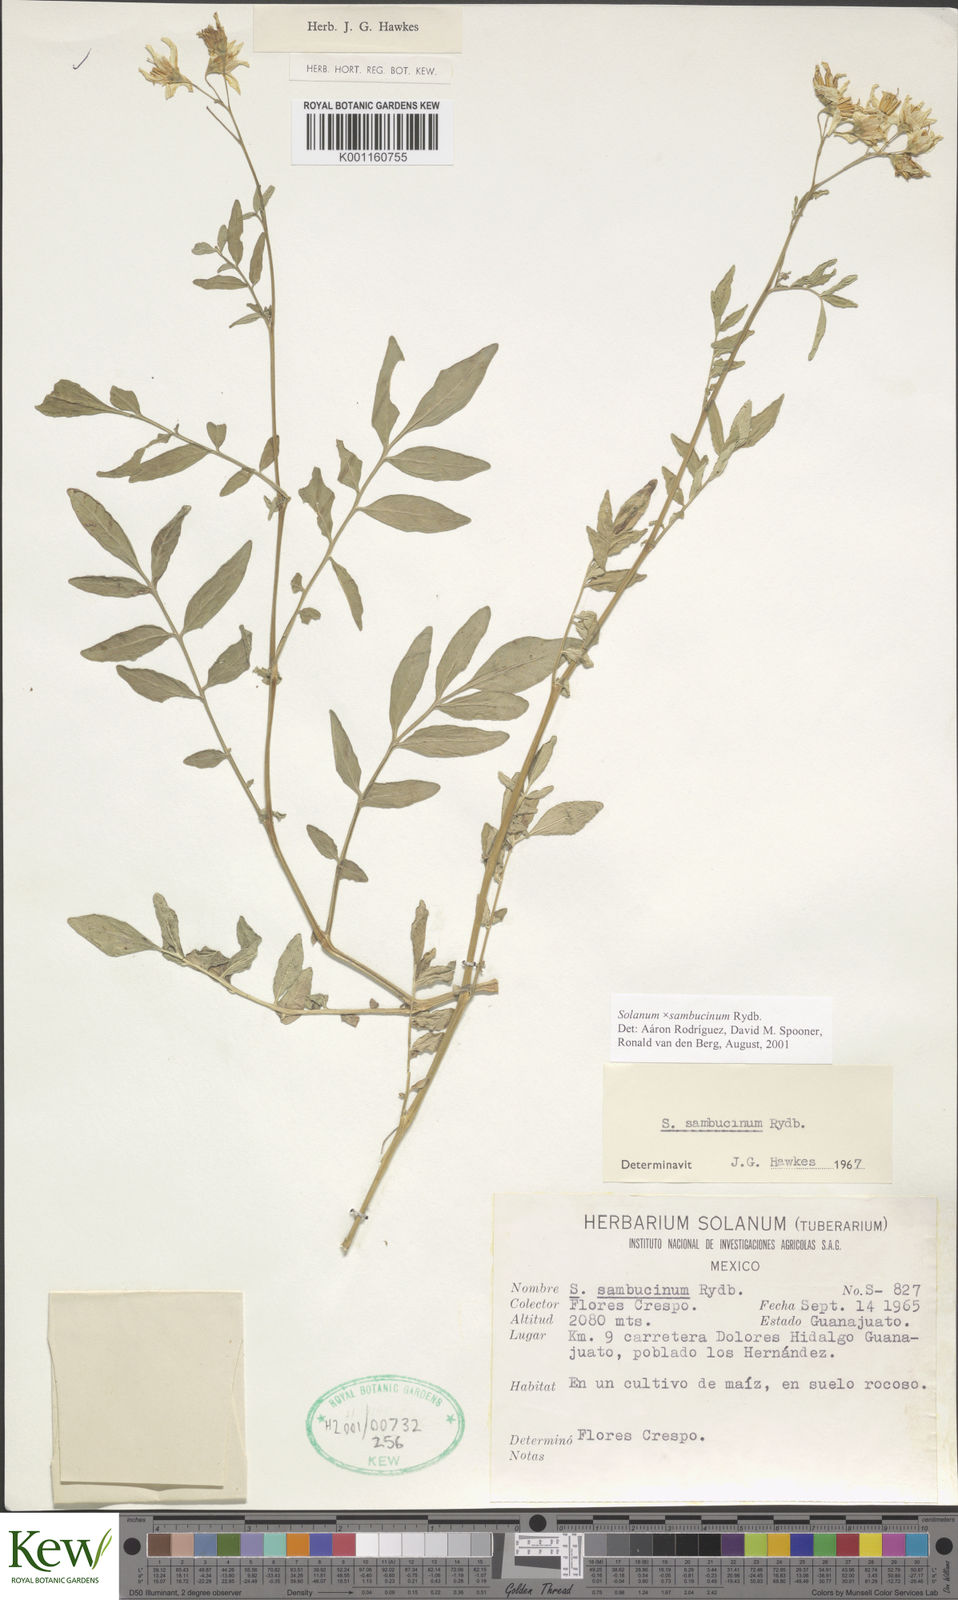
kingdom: Plantae
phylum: Tracheophyta
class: Magnoliopsida
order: Solanales
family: Solanaceae
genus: Solanum
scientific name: Solanum sambucinum
